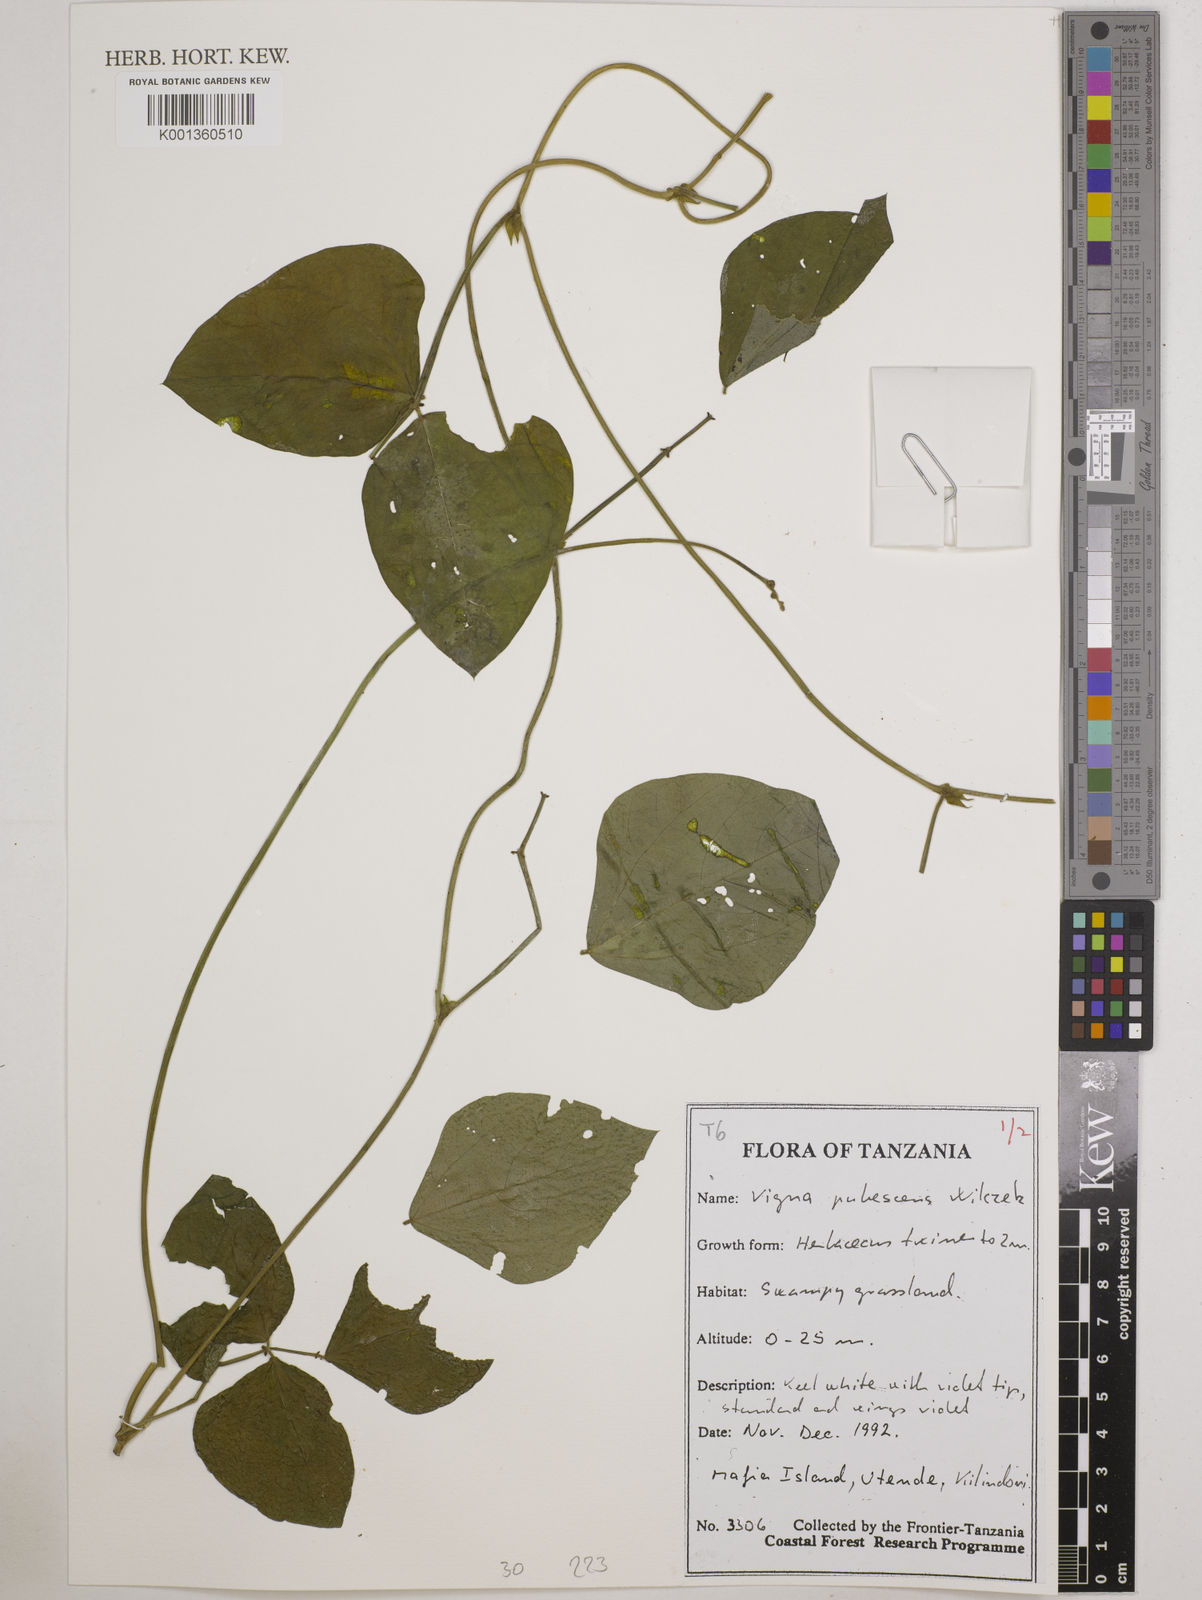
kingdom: Plantae
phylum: Tracheophyta
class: Magnoliopsida
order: Fabales
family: Fabaceae
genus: Vigna
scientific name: Vigna unguiculata
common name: Cowpea
